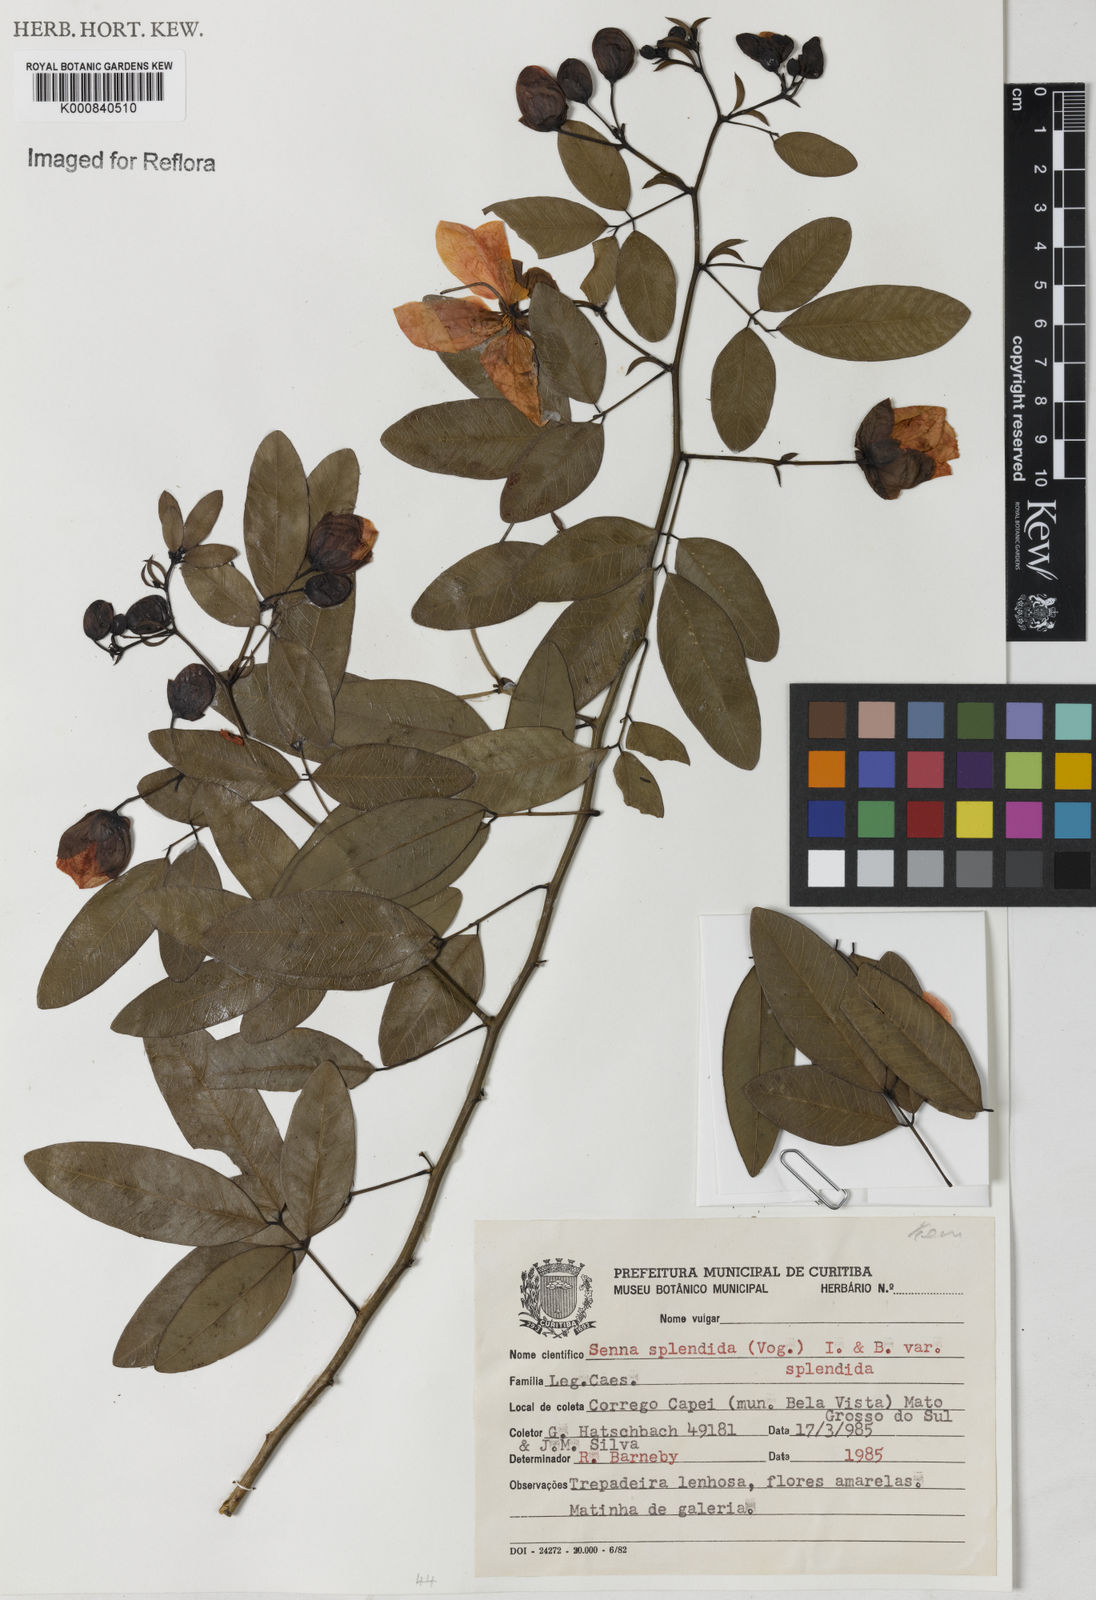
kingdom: Plantae
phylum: Tracheophyta
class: Magnoliopsida
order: Fabales
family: Fabaceae
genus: Senna
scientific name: Senna splendida
